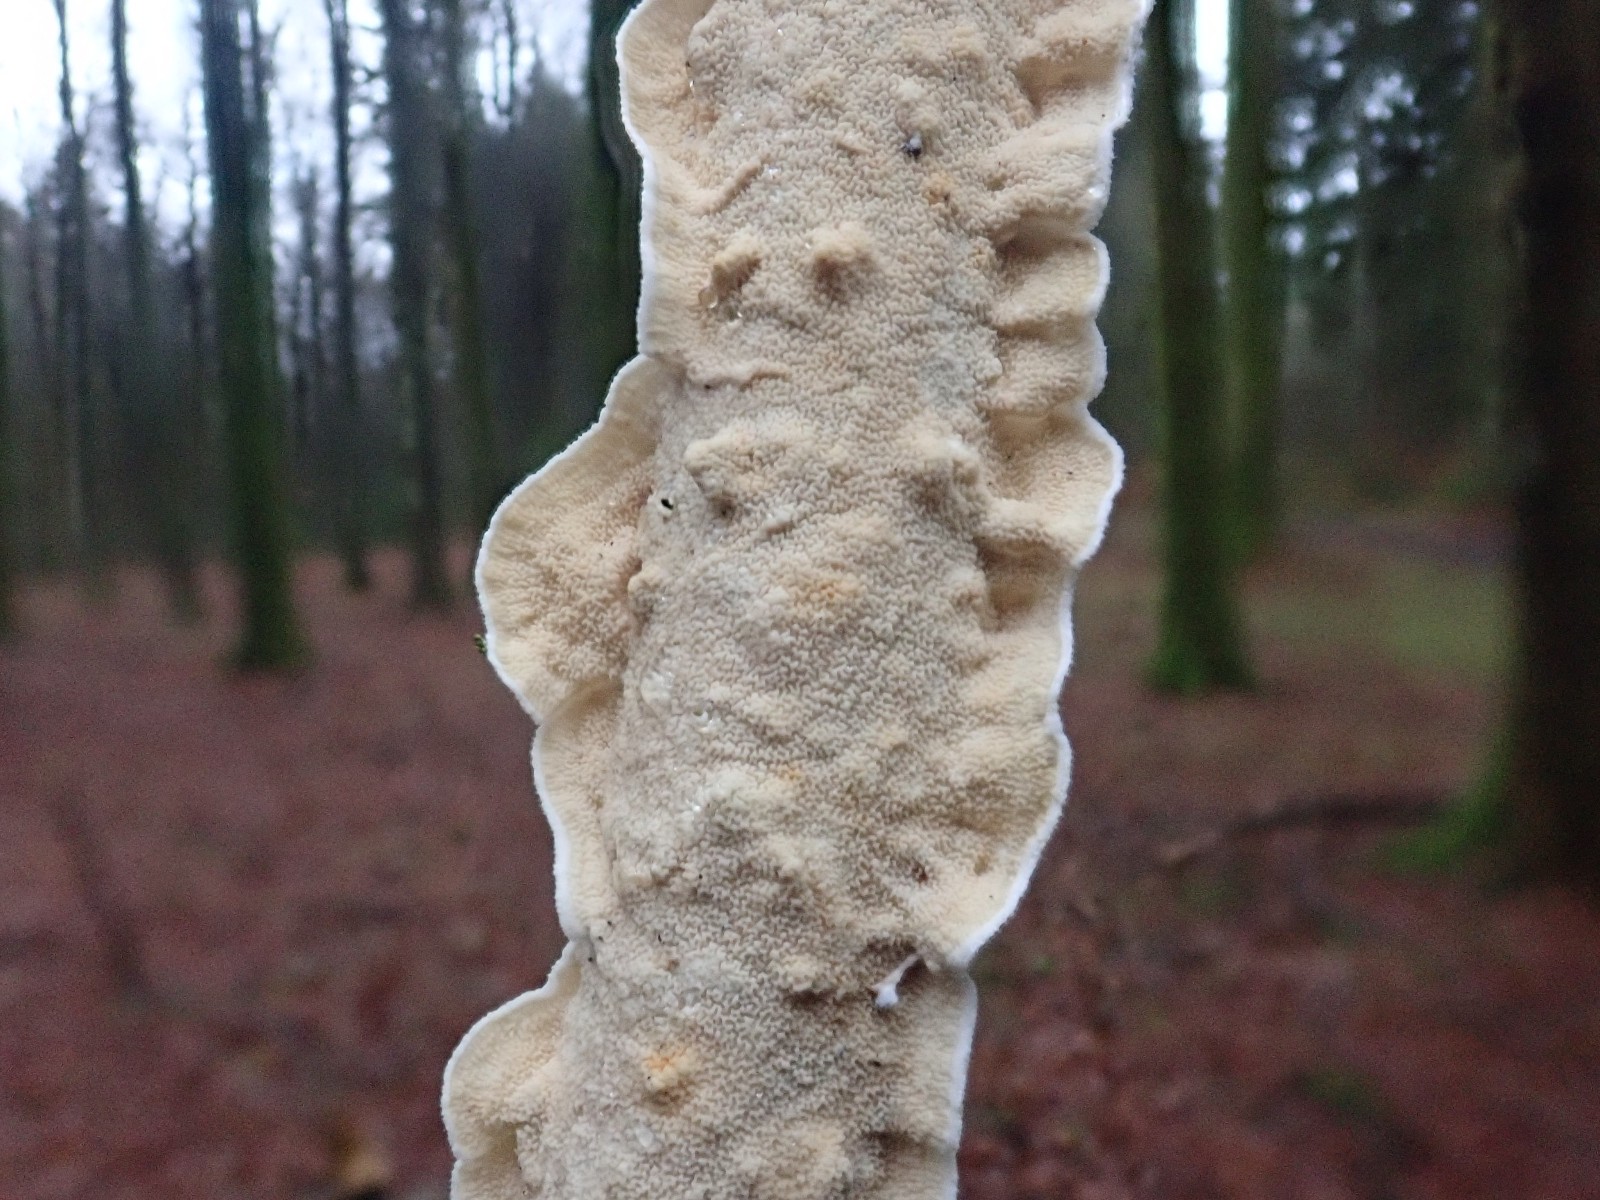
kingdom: Fungi
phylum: Basidiomycota
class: Agaricomycetes
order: Polyporales
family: Irpicaceae
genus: Byssomerulius
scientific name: Byssomerulius corium
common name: læder-åresvamp
